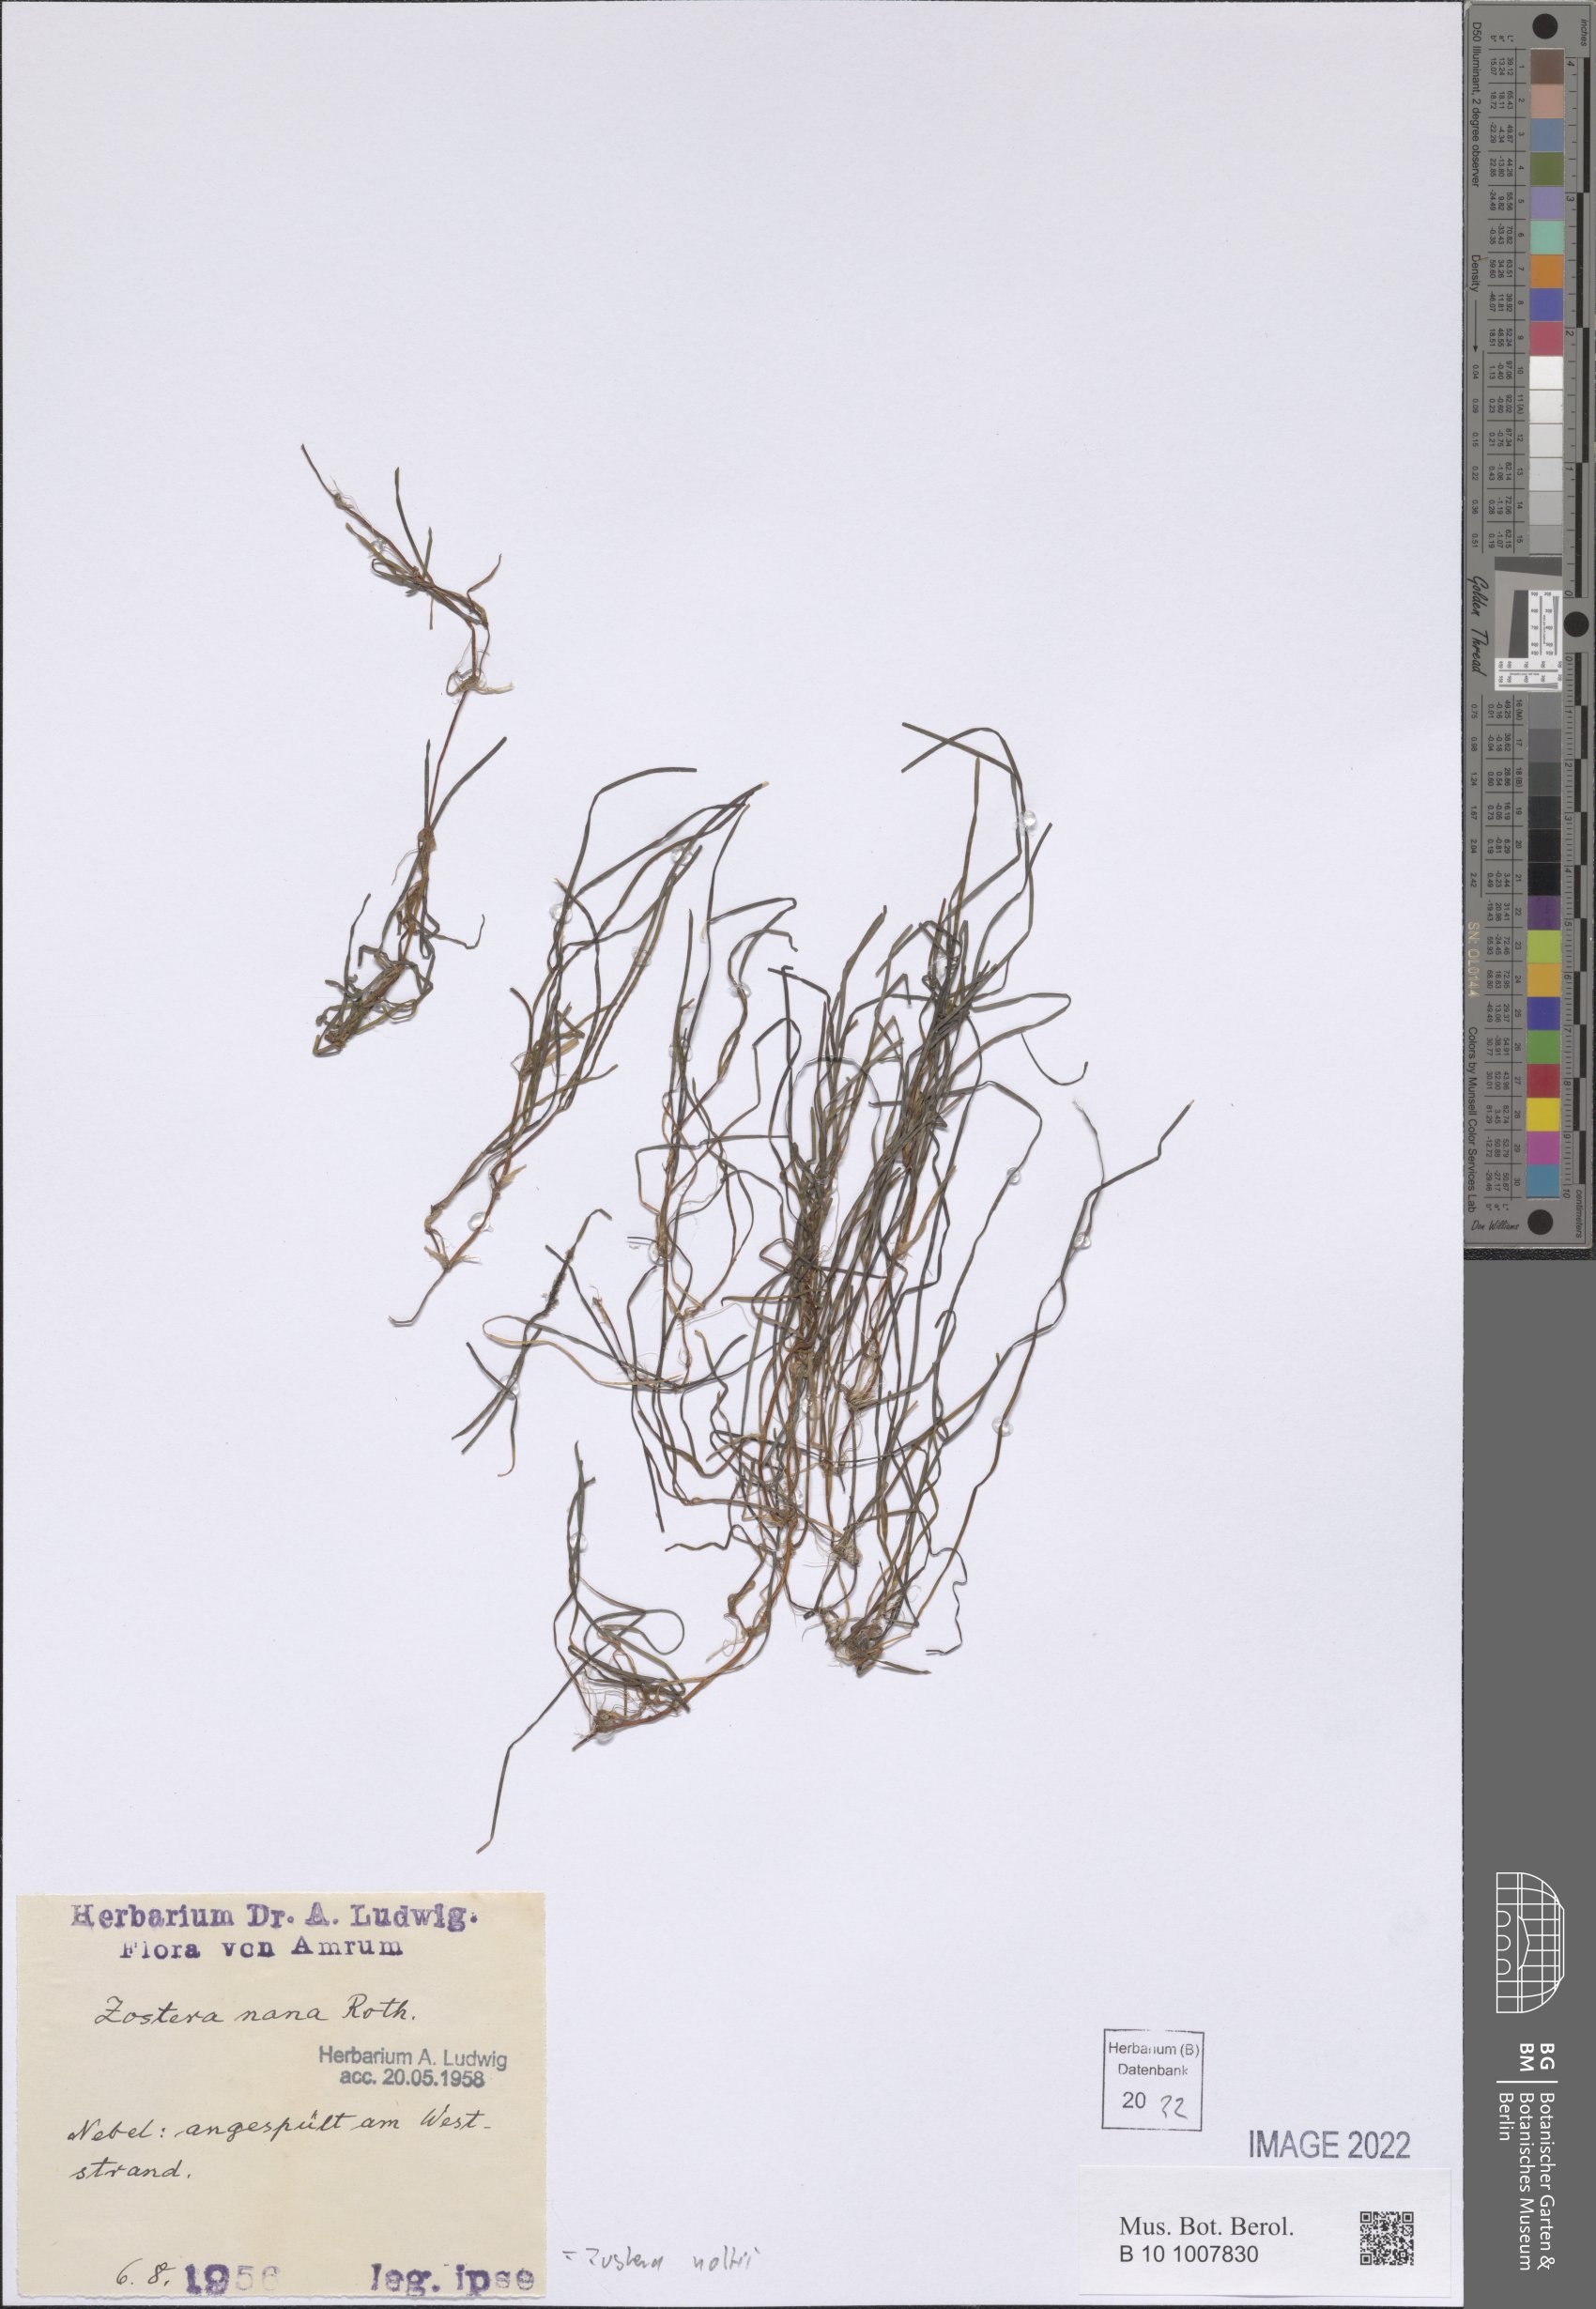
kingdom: Plantae
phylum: Tracheophyta
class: Liliopsida
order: Alismatales
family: Zosteraceae
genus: Zostera
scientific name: Zostera noltii
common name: Dwarf eelgrass
